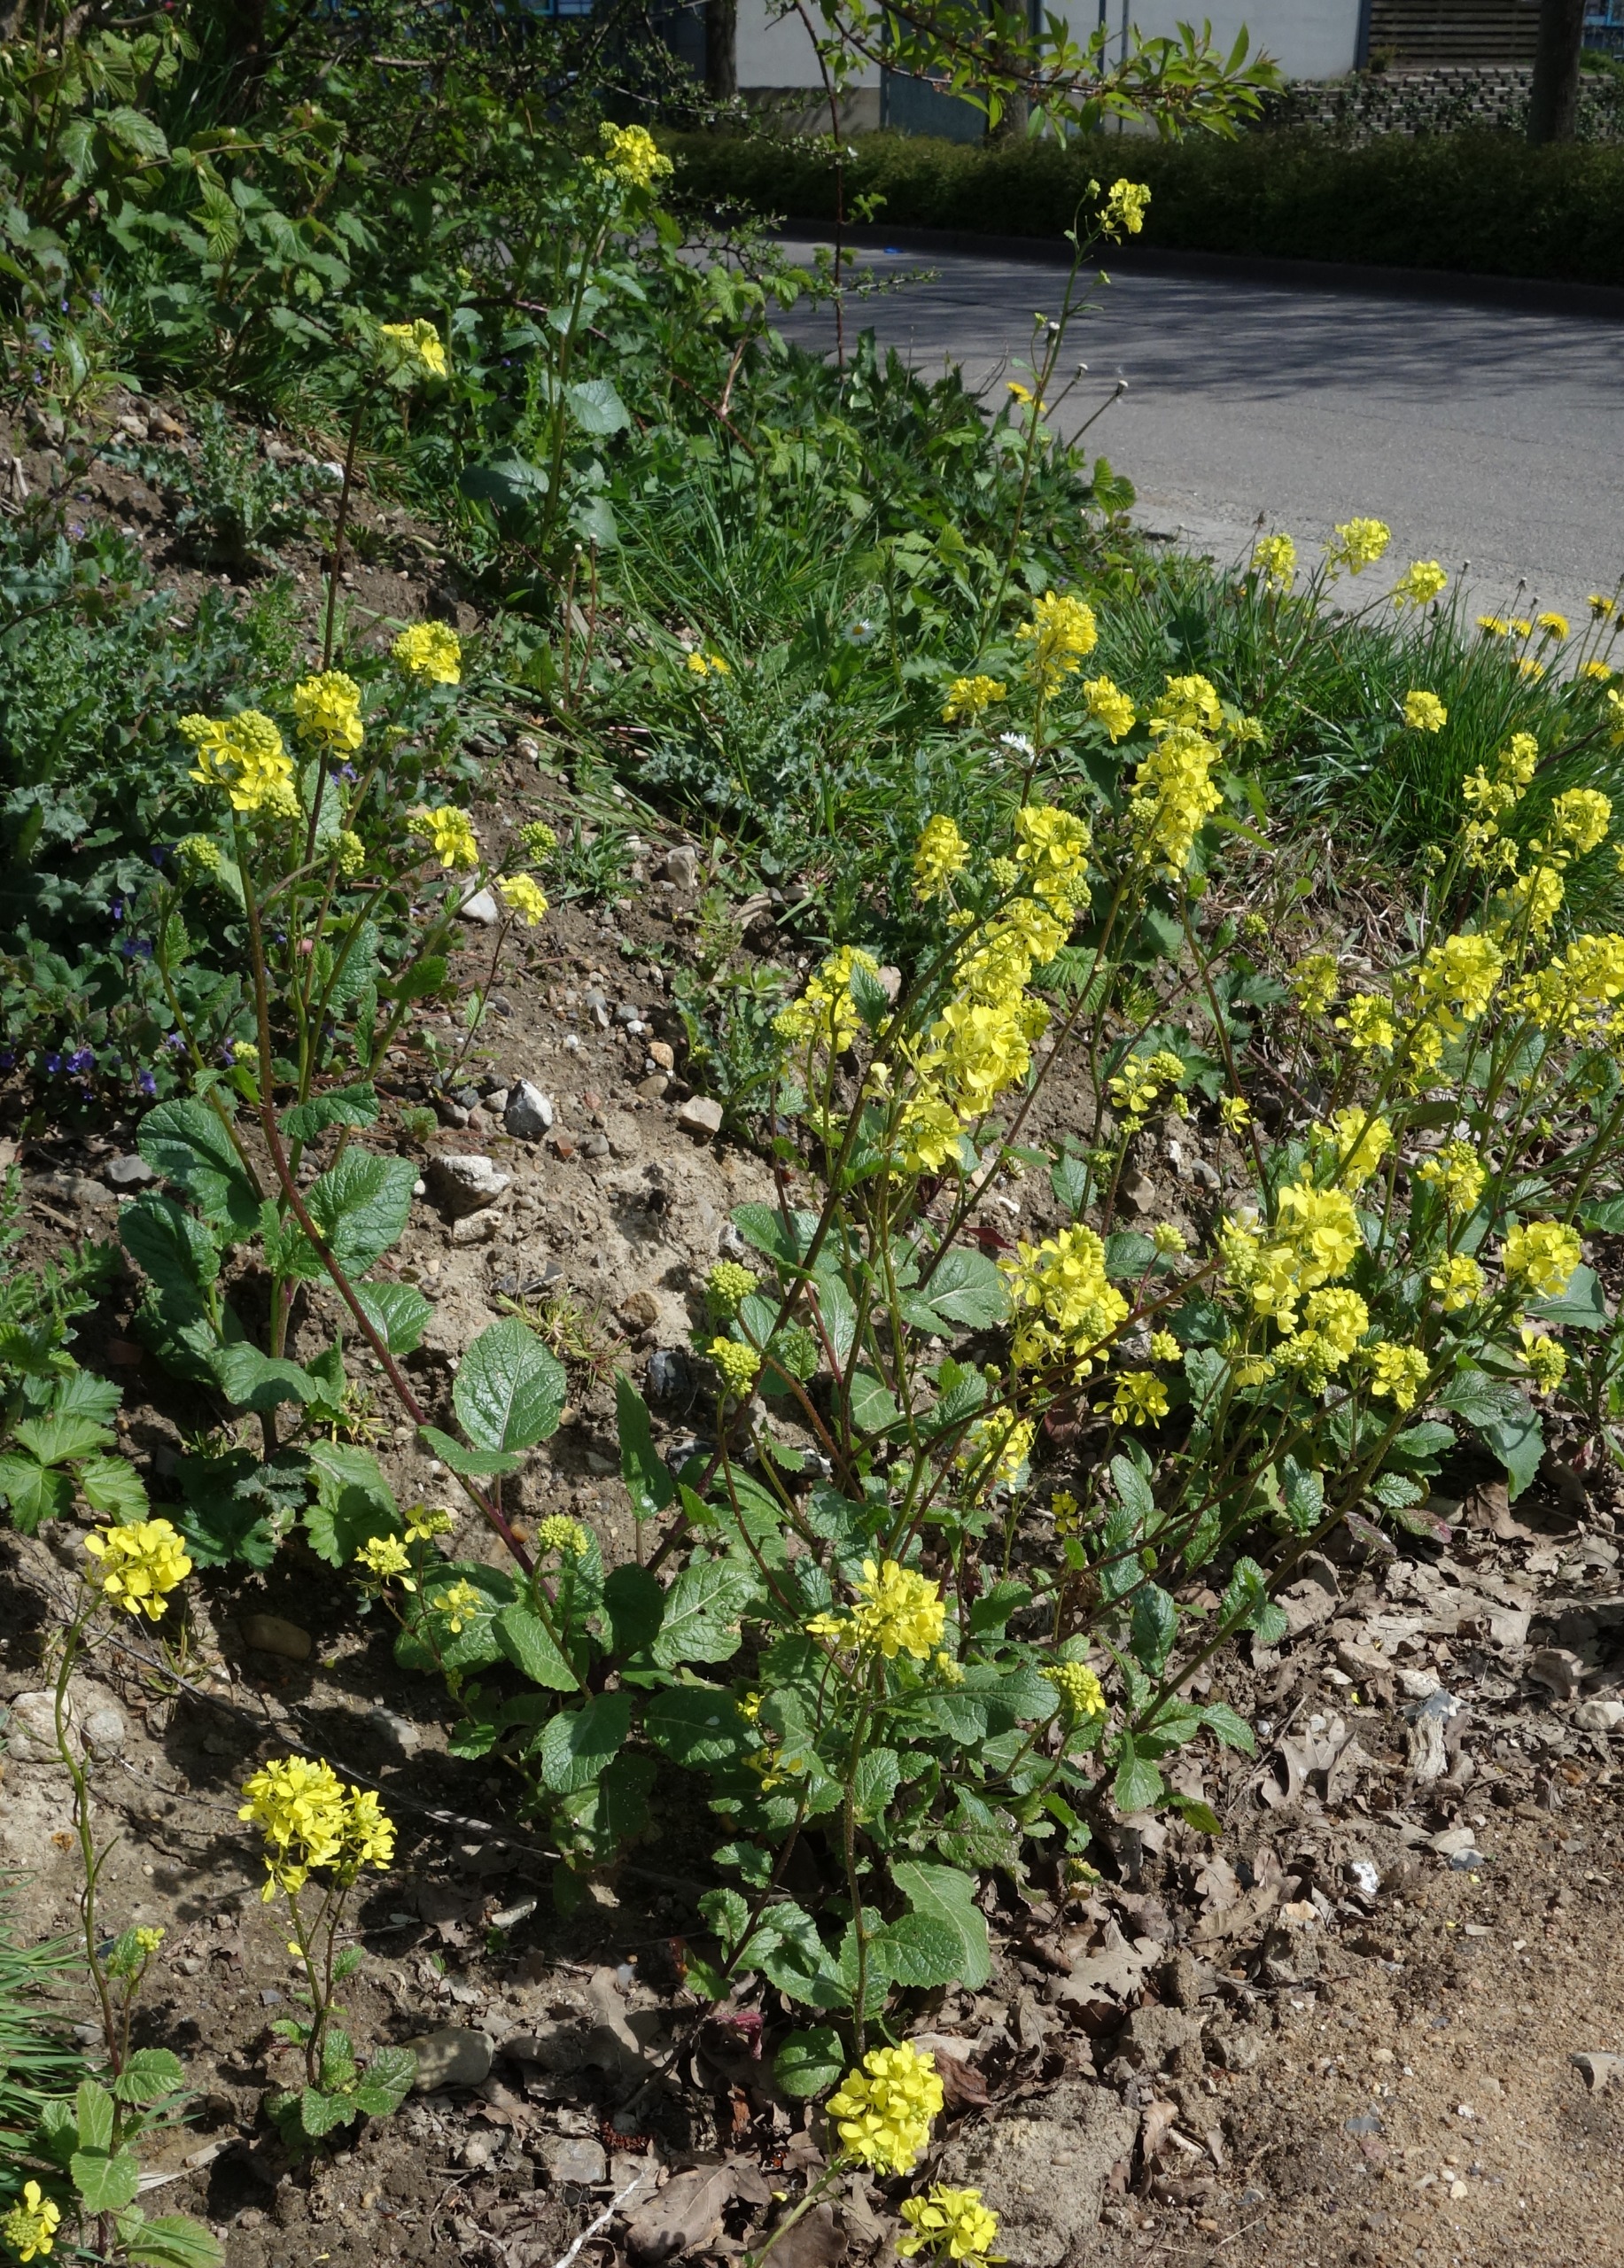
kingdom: Plantae
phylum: Tracheophyta
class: Magnoliopsida
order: Brassicales
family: Brassicaceae
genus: Sinapis
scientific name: Sinapis arvensis
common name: Ager-sennep
